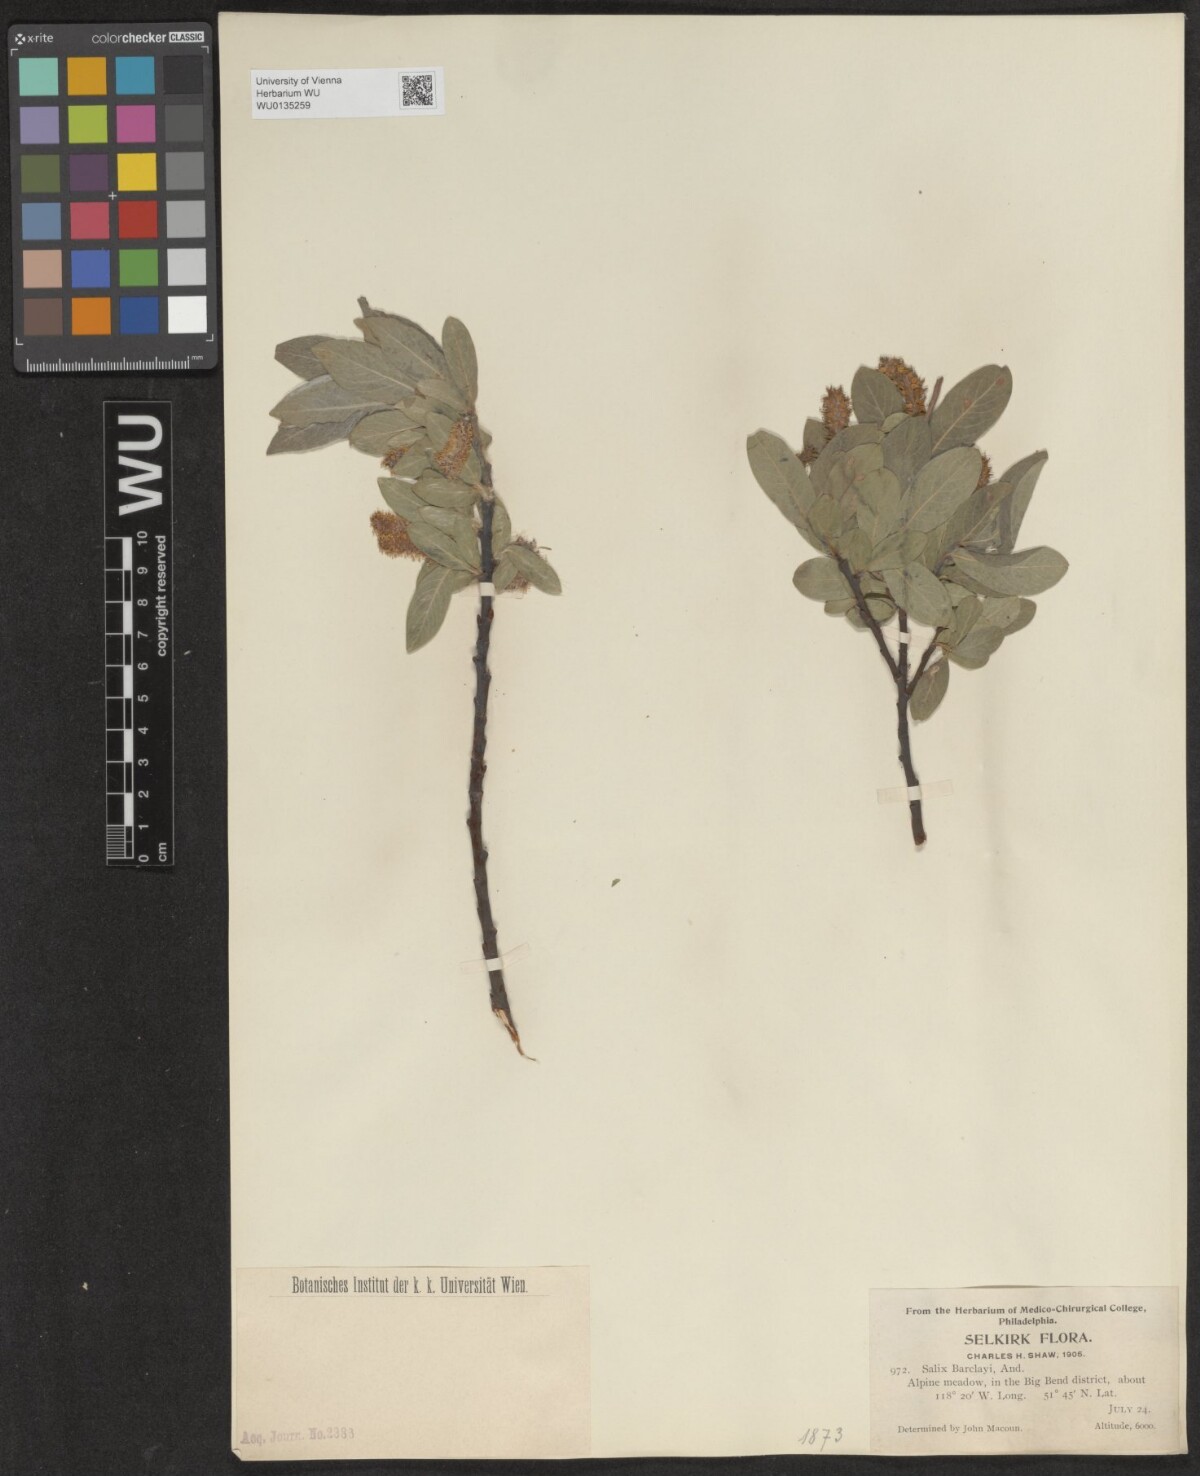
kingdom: Plantae
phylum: Tracheophyta
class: Magnoliopsida
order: Malpighiales
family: Salicaceae
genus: Salix
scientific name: Salix barclayi
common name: Mountain willow
